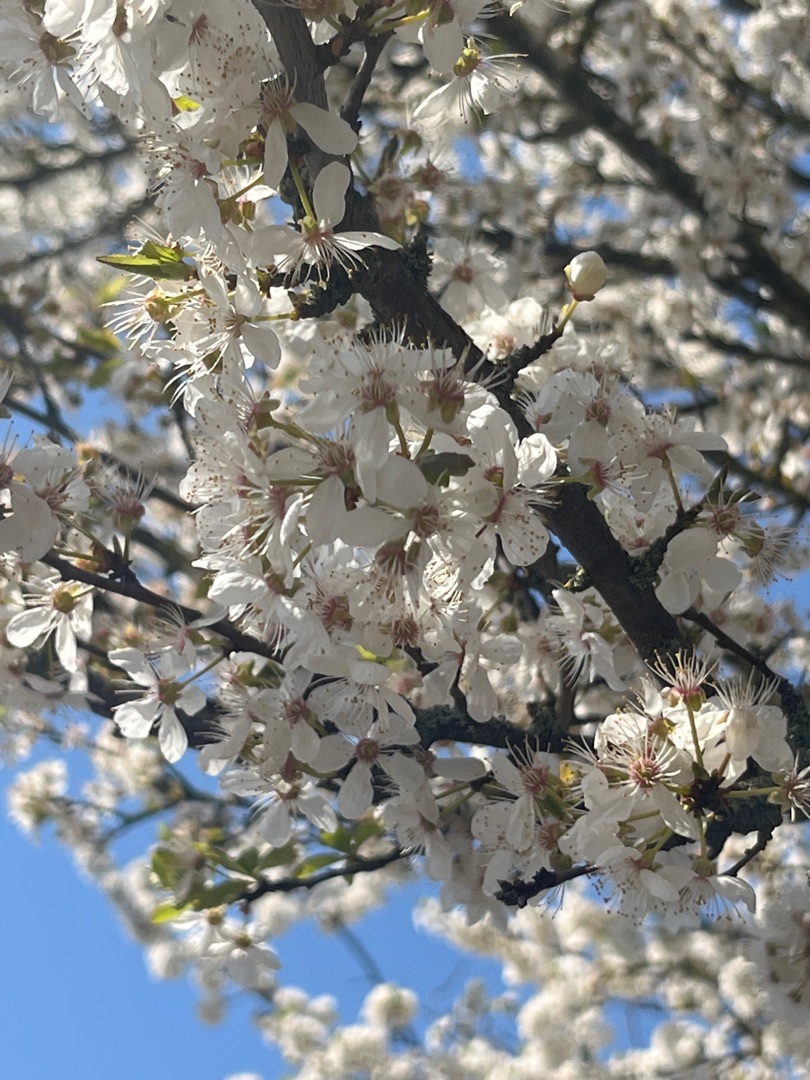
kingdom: Plantae
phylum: Tracheophyta
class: Magnoliopsida
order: Rosales
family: Rosaceae
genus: Prunus
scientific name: Prunus cerasifera
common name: Mirabel
